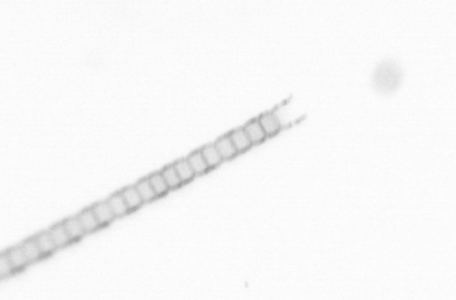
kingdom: Chromista
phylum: Ochrophyta
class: Bacillariophyceae
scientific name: Bacillariophyceae
